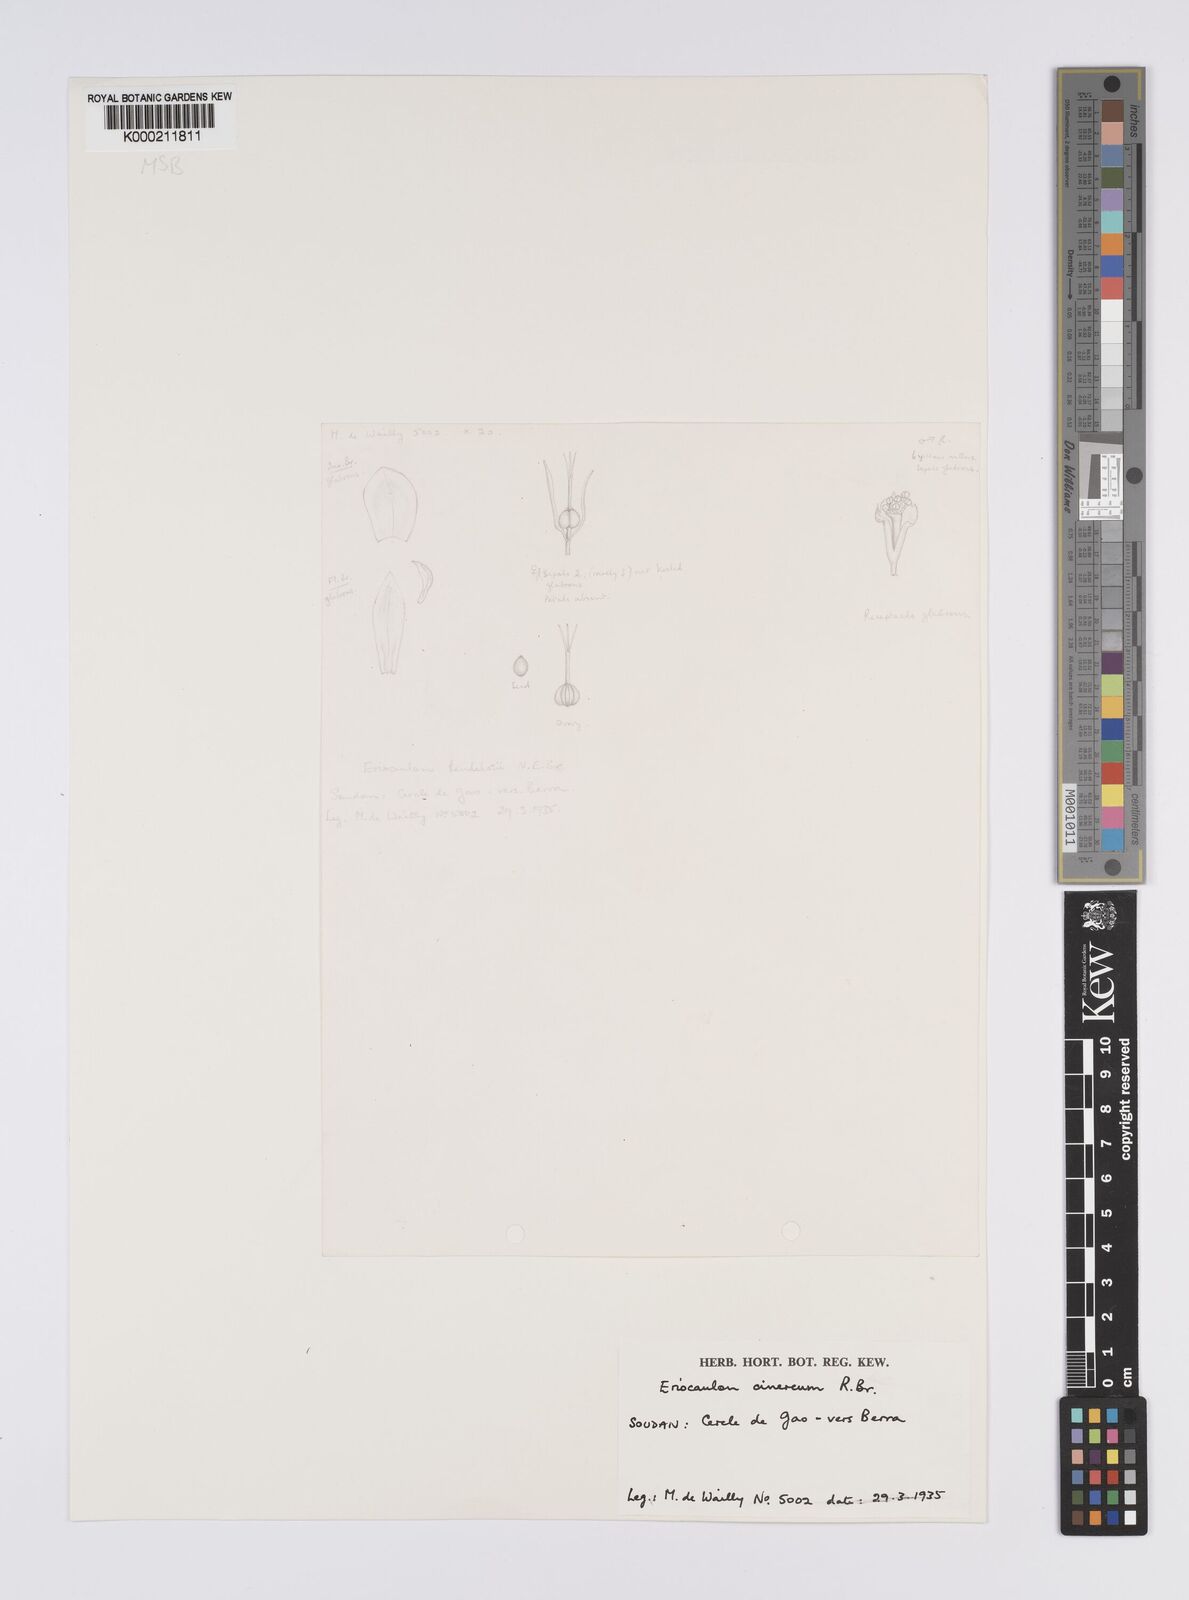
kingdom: Plantae
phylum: Tracheophyta
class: Liliopsida
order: Poales
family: Eriocaulaceae
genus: Eriocaulon
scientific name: Eriocaulon cinereum
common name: Ashy pipewort
